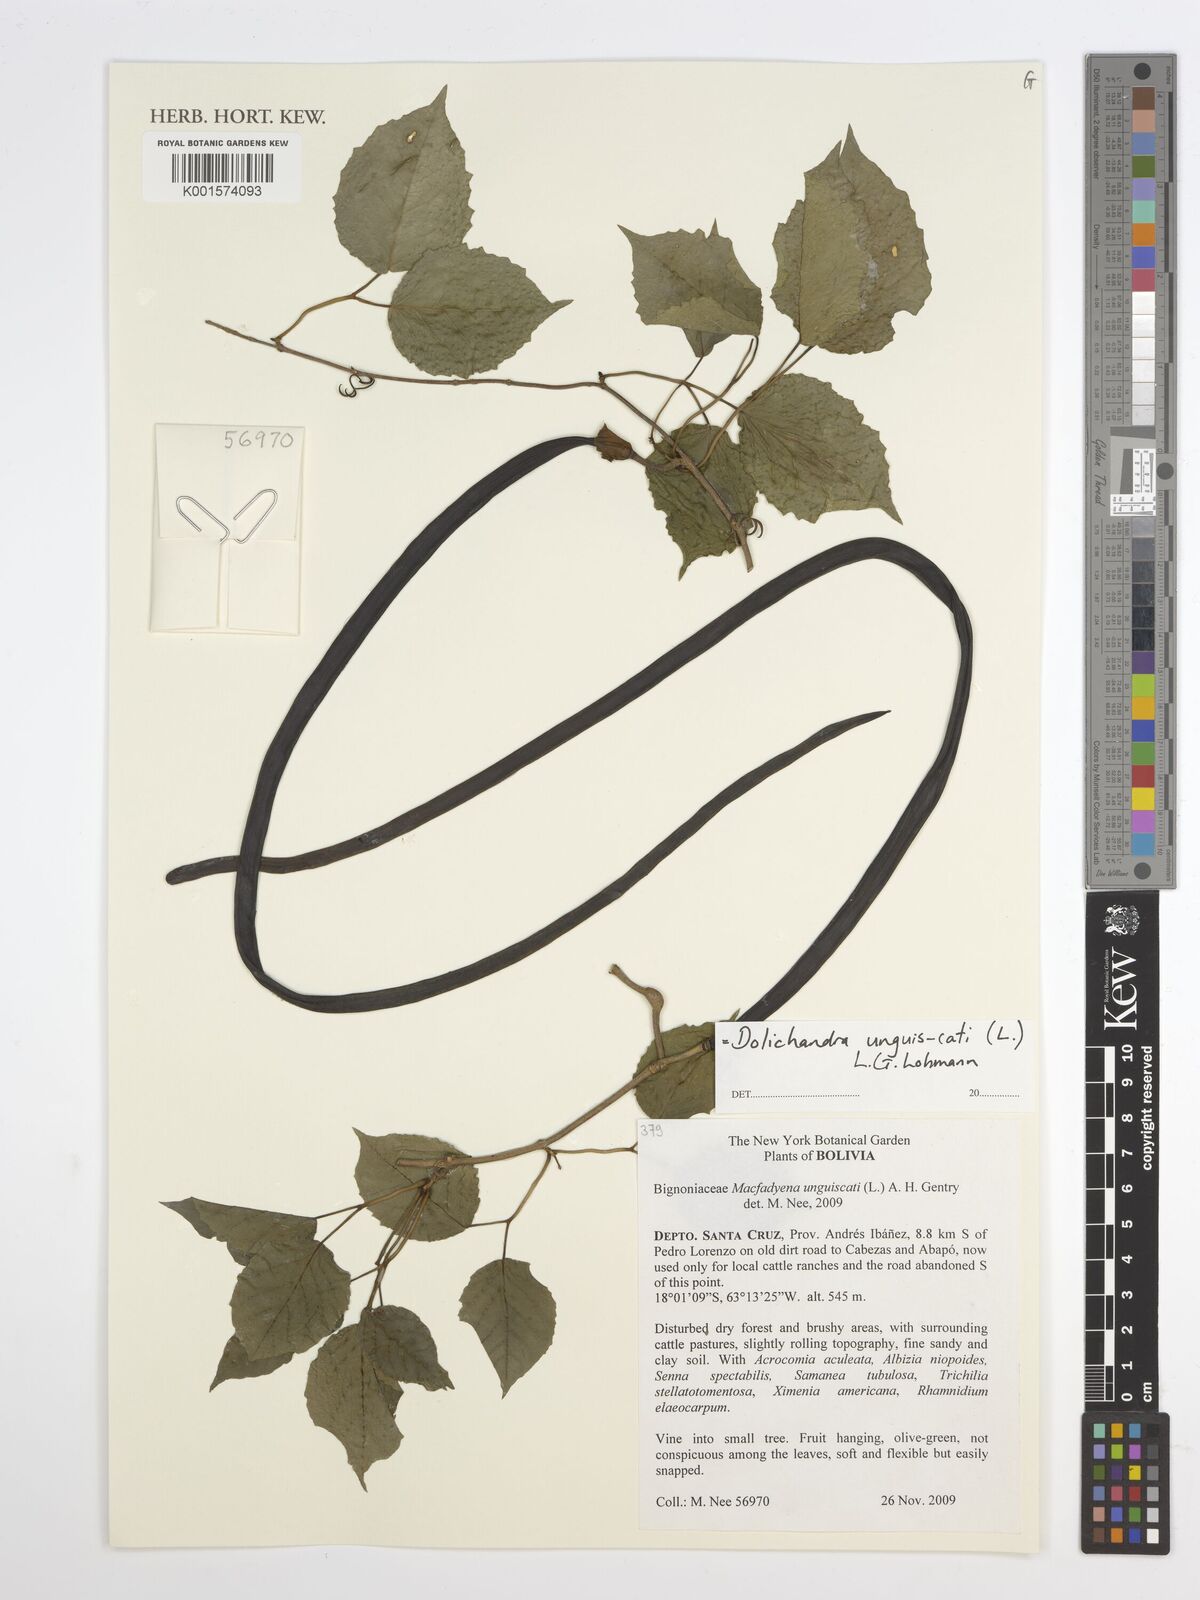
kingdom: Plantae
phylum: Tracheophyta
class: Magnoliopsida
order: Lamiales
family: Bignoniaceae
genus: Dolichandra
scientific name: Dolichandra unguis-cati
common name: Catclaw vine
